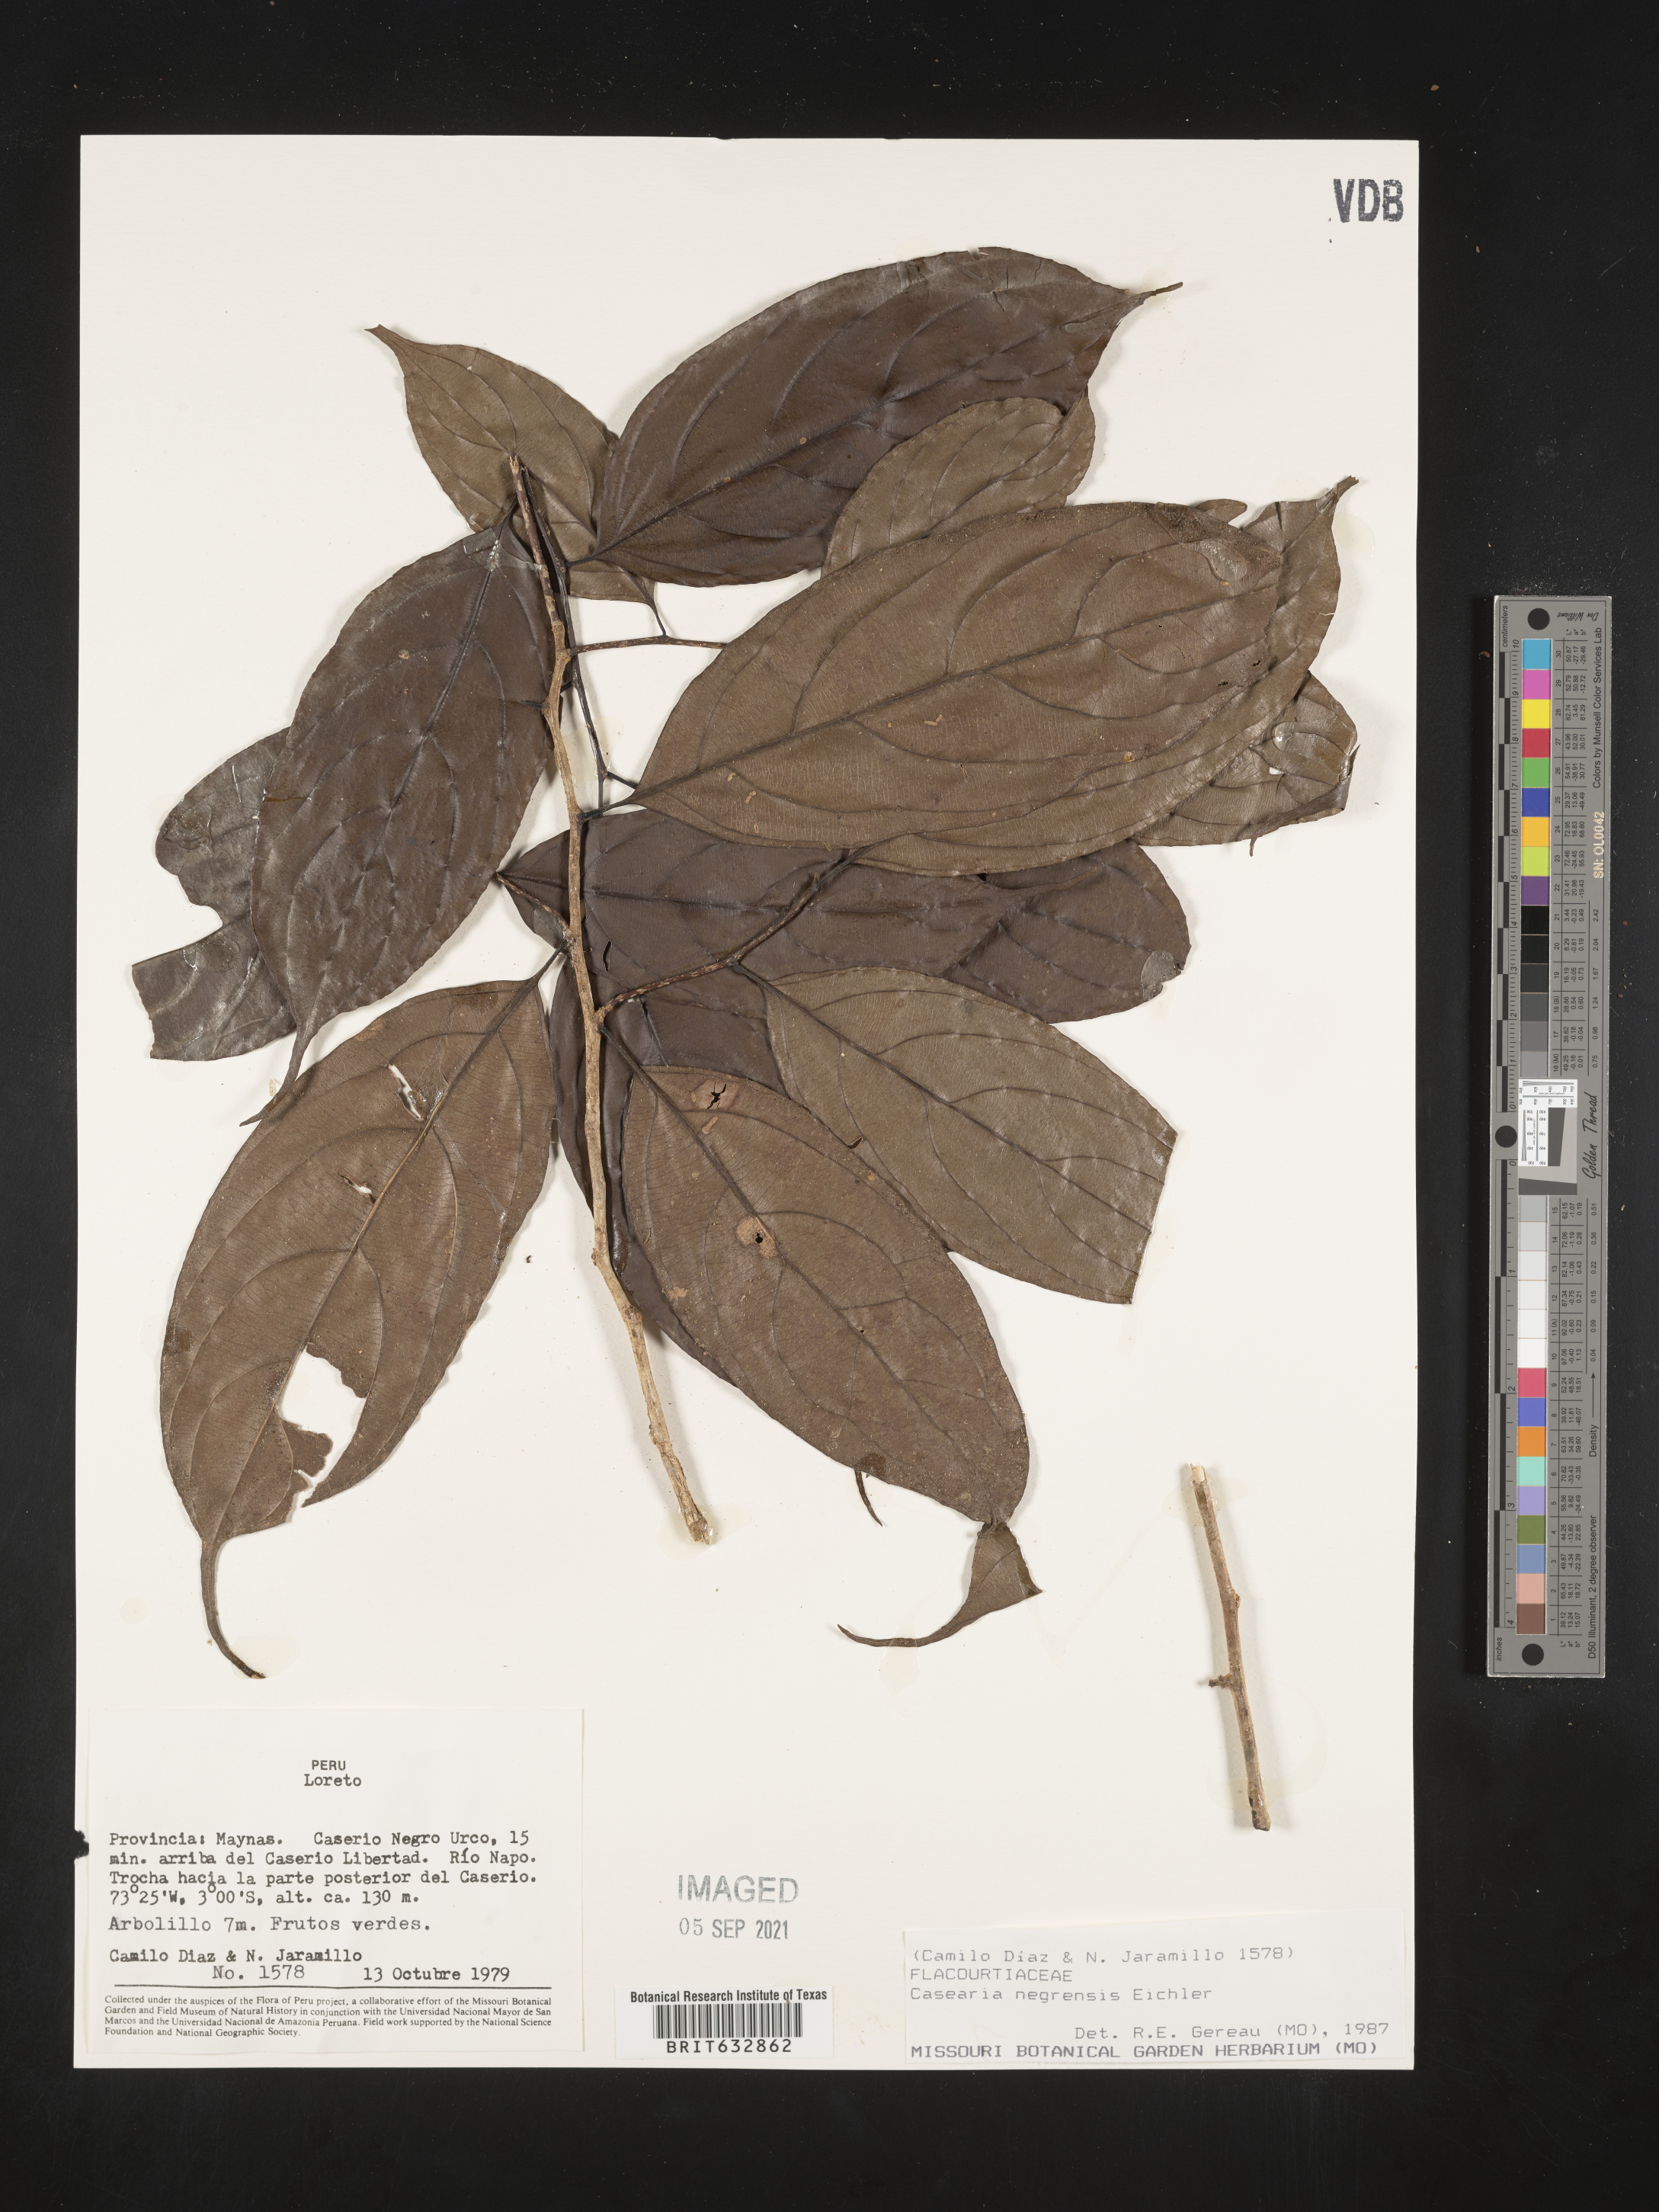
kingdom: Plantae
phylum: Tracheophyta
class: Magnoliopsida
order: Malpighiales
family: Salicaceae
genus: Casearia
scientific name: Casearia
